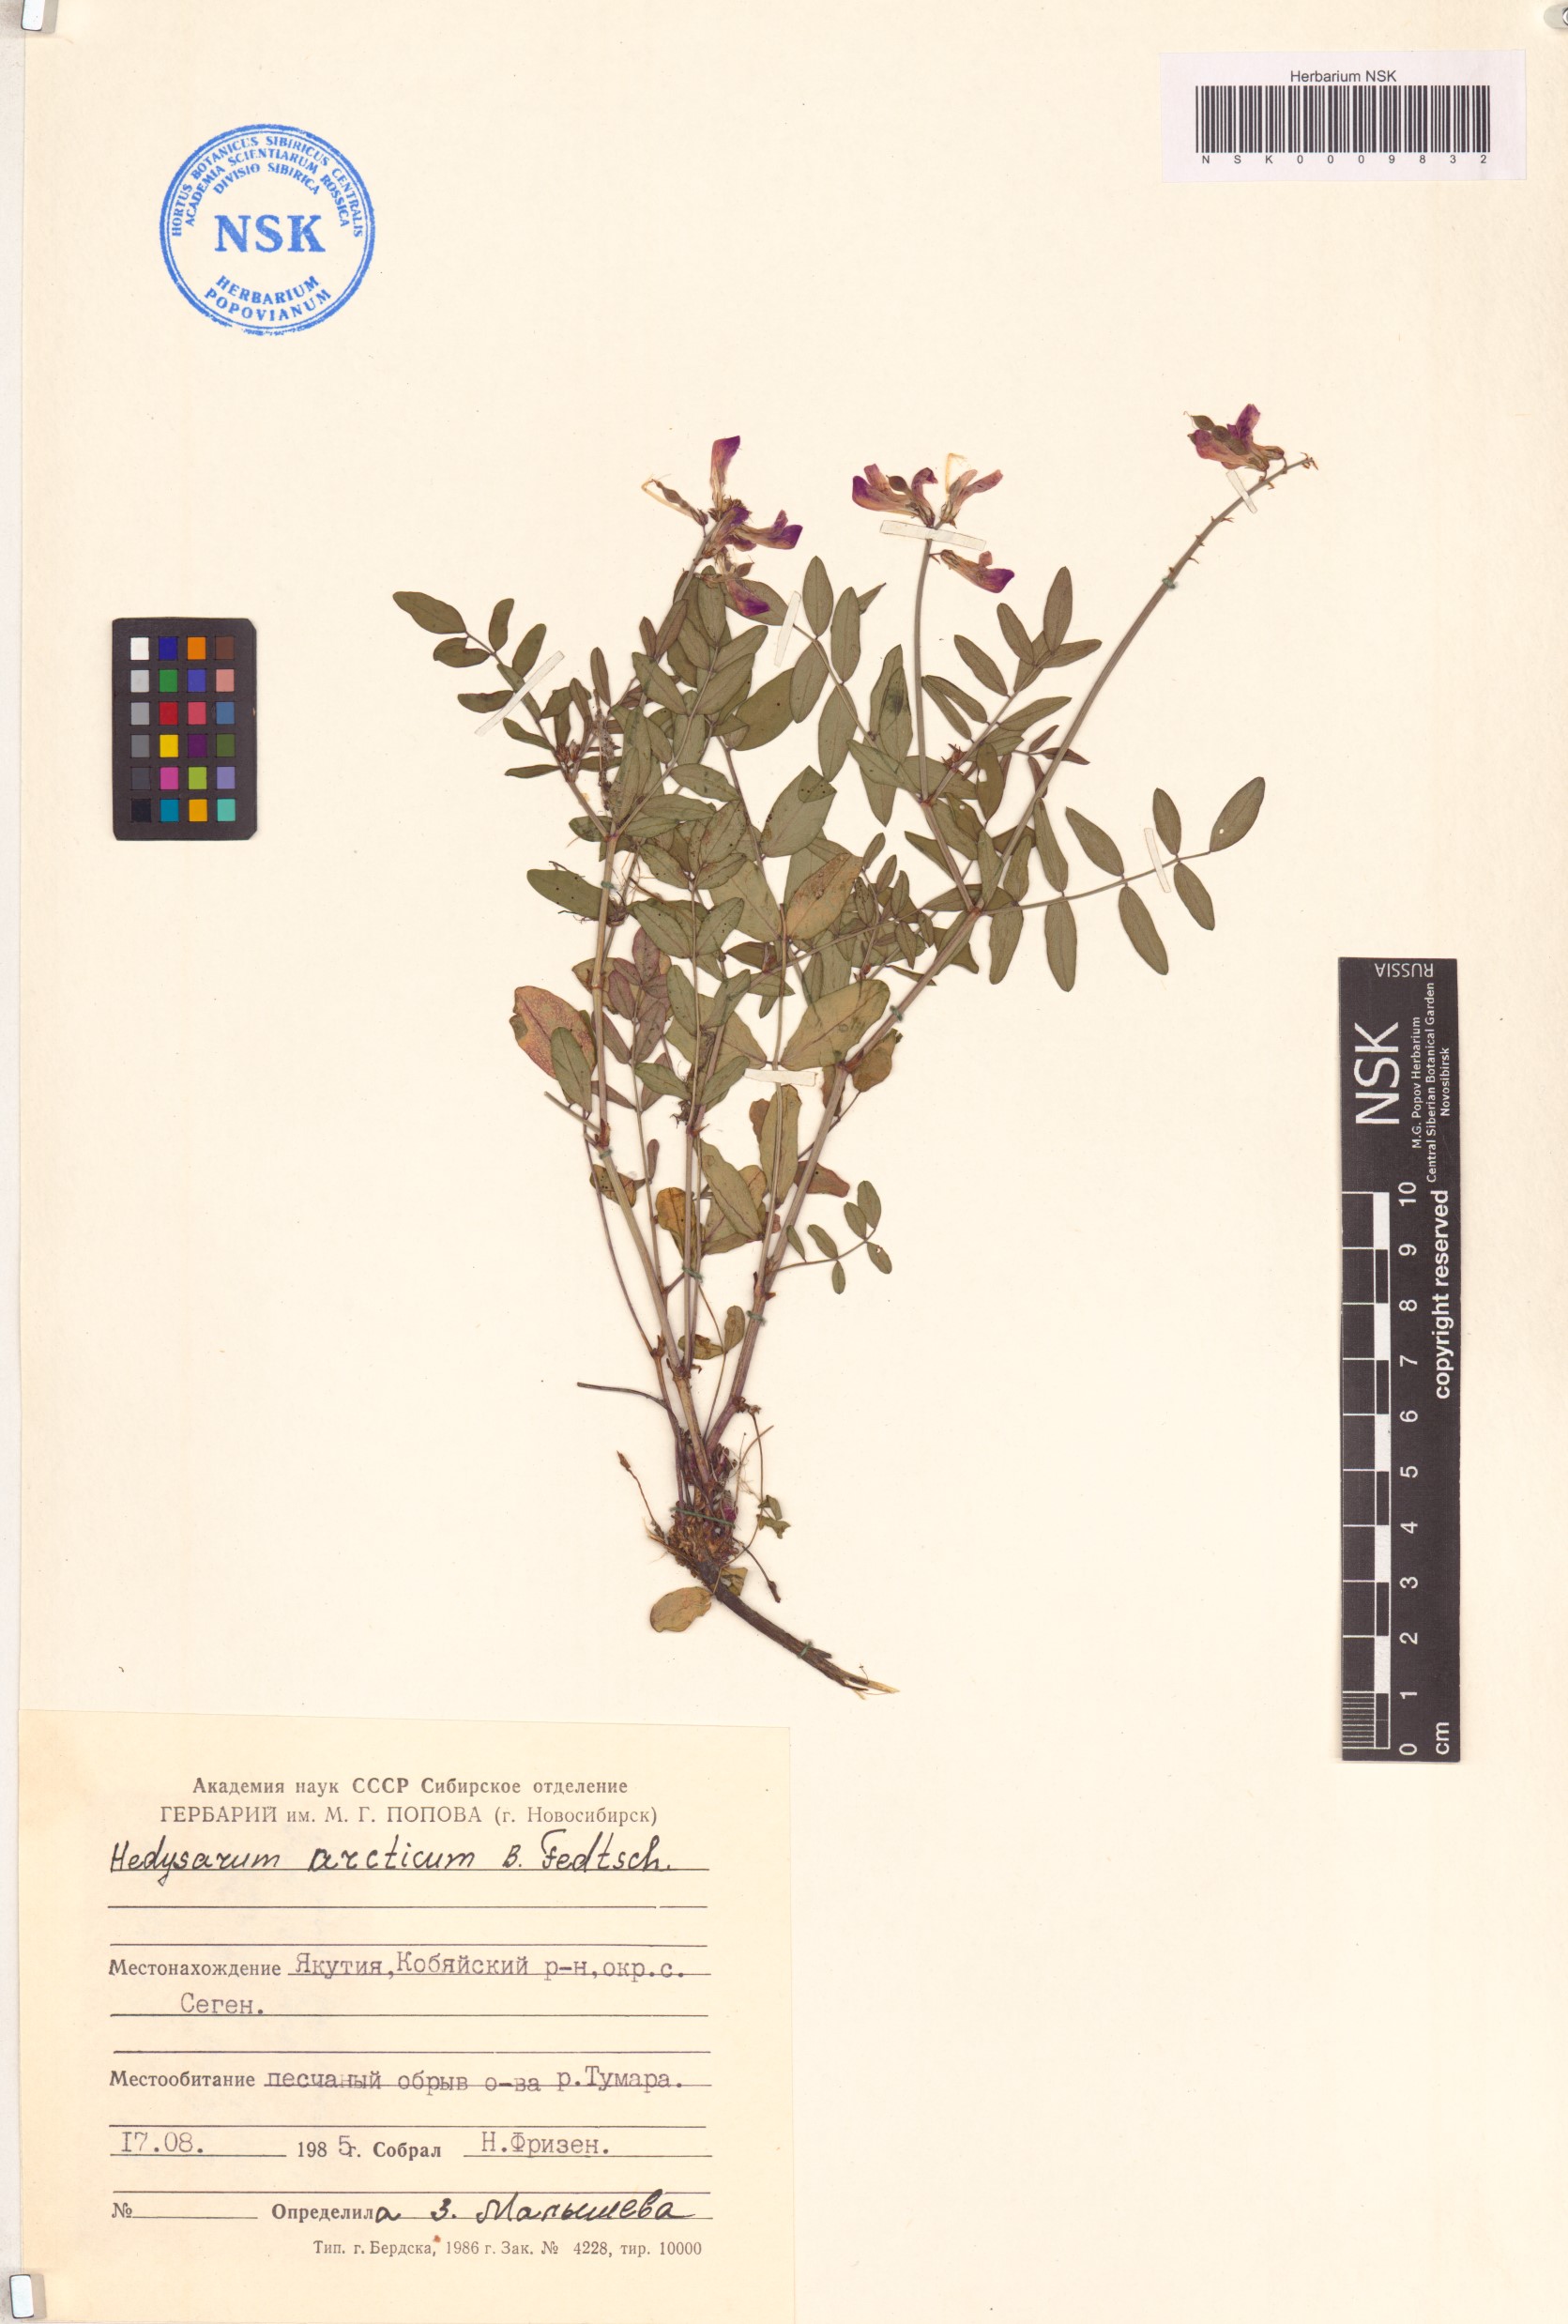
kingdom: Plantae
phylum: Tracheophyta
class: Magnoliopsida
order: Fabales
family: Fabaceae
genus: Hedysarum
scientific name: Hedysarum hedysaroides
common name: Alpine french-honeysuckle
